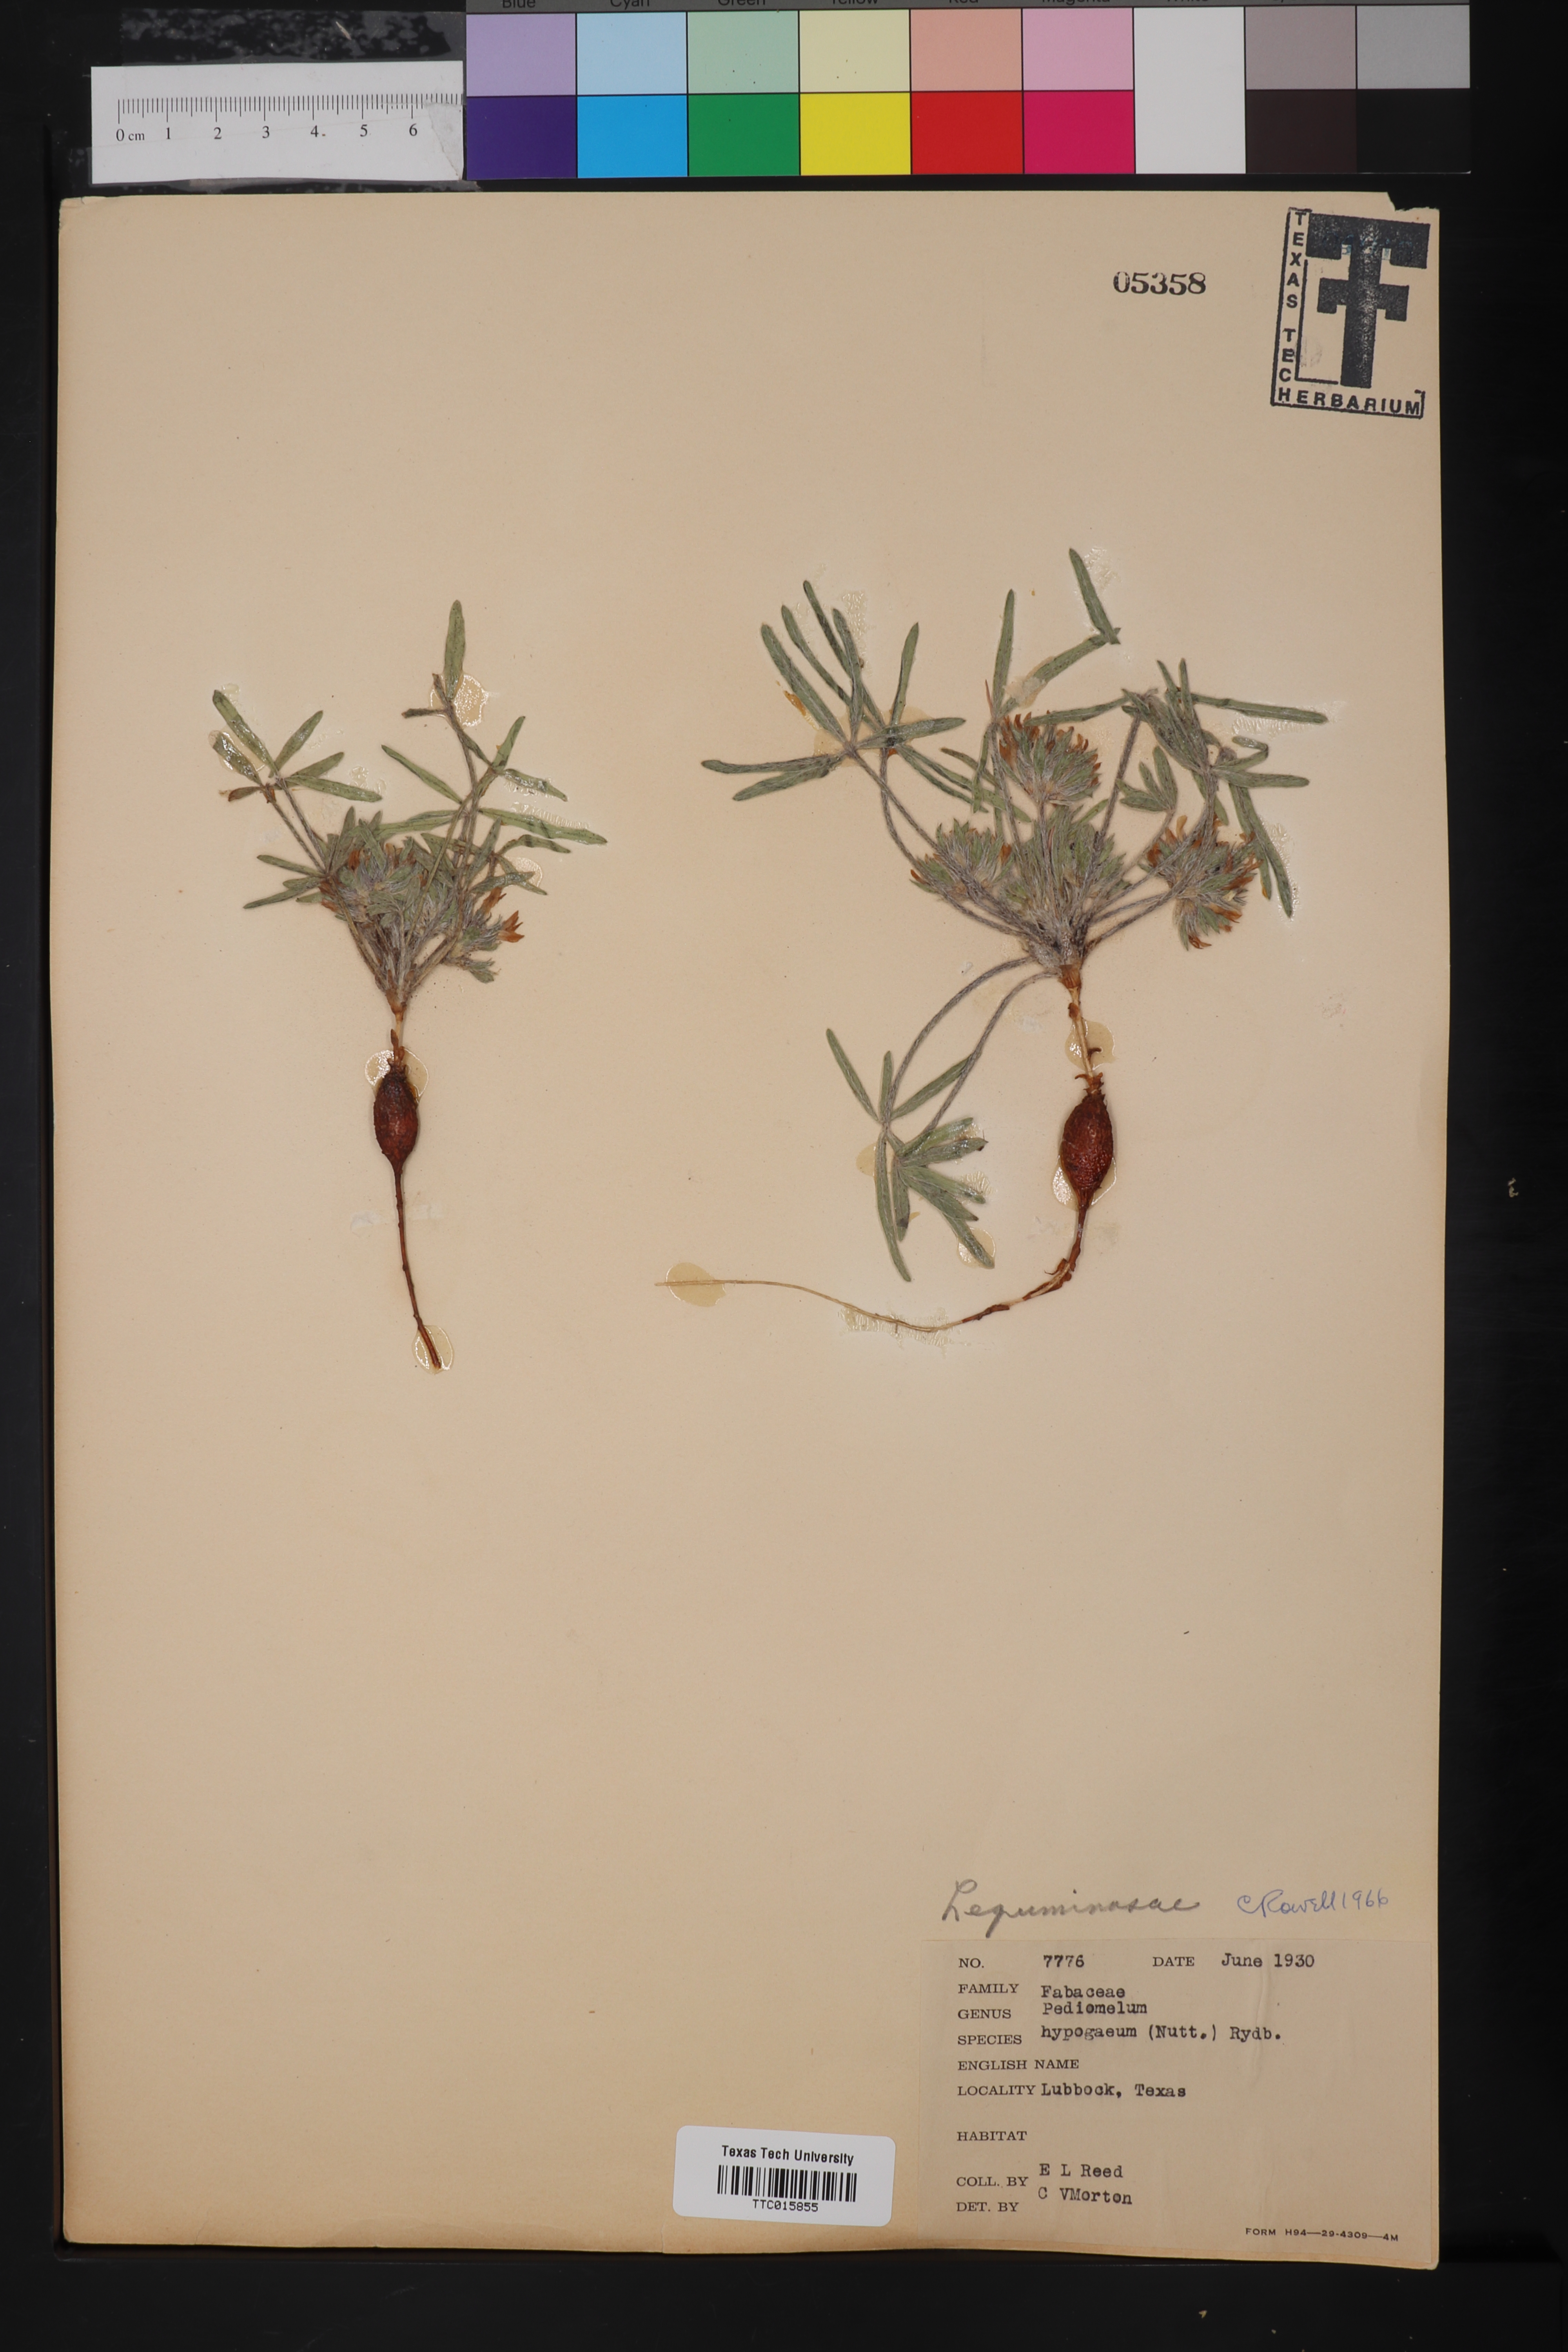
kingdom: Plantae
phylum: Tracheophyta
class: Magnoliopsida
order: Fabales
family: Fabaceae
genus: Pediomelum
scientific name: Pediomelum hypogaeum
